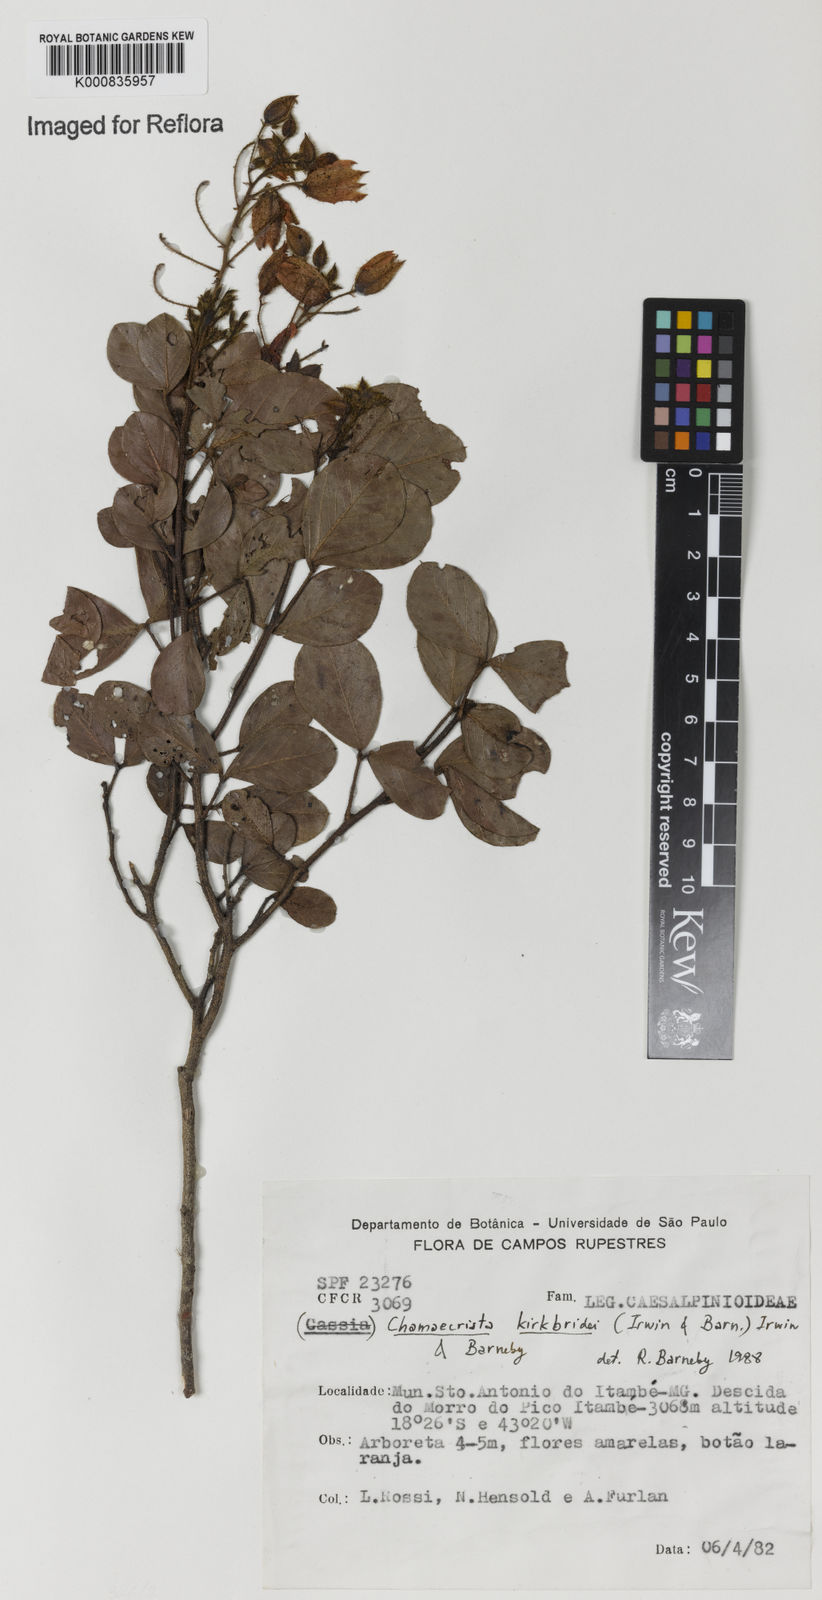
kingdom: Plantae
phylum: Tracheophyta
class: Magnoliopsida
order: Fabales
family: Fabaceae
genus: Chamaecrista
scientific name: Chamaecrista echinocarpa
